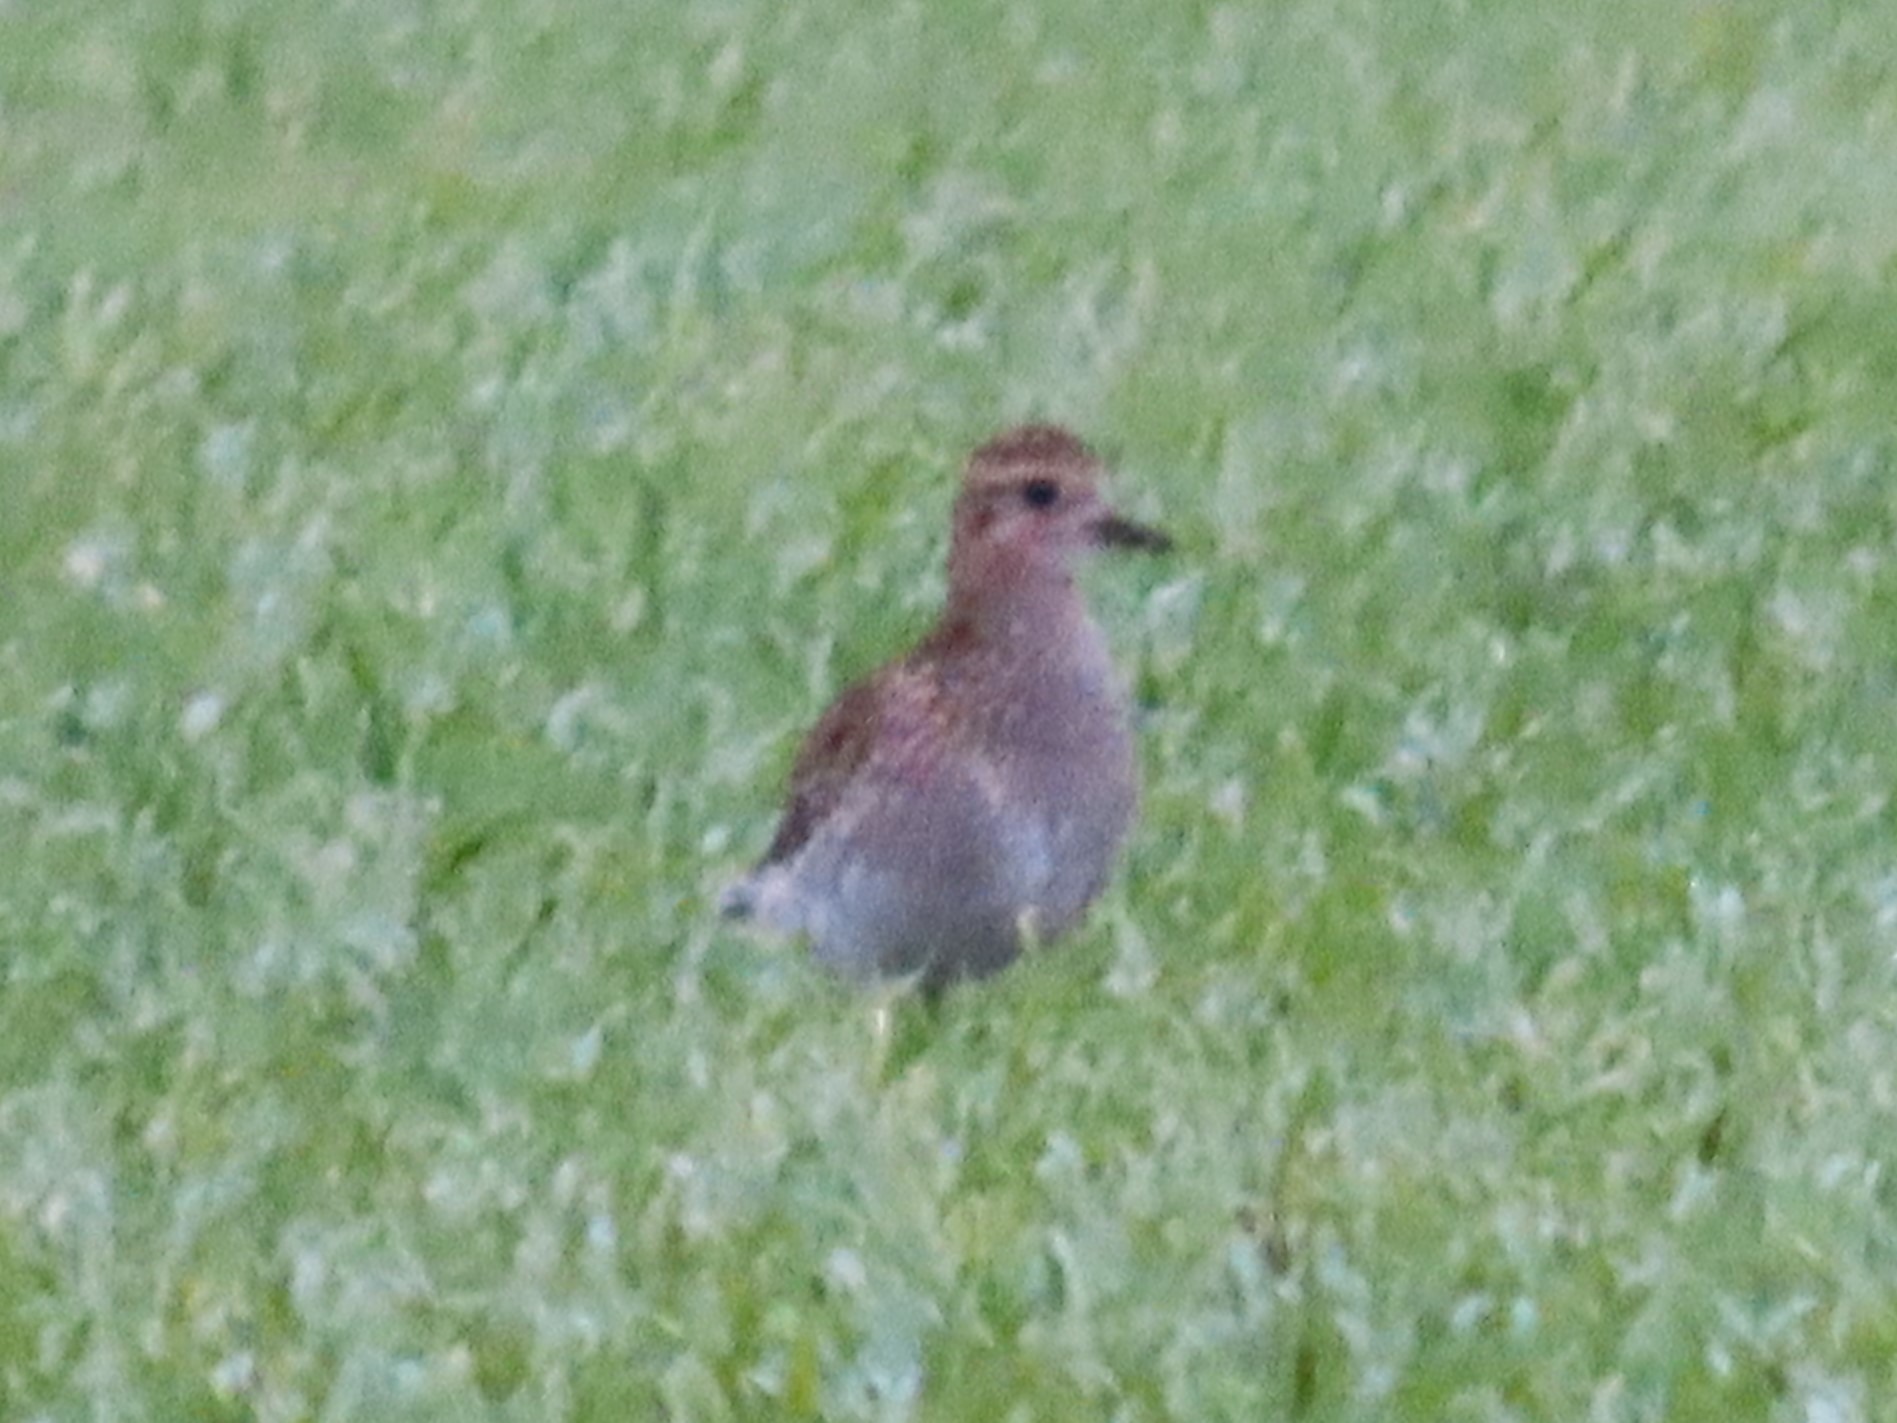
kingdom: Animalia
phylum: Chordata
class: Aves
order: Charadriiformes
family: Charadriidae
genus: Pluvialis
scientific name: Pluvialis apricaria
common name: Hjejle
